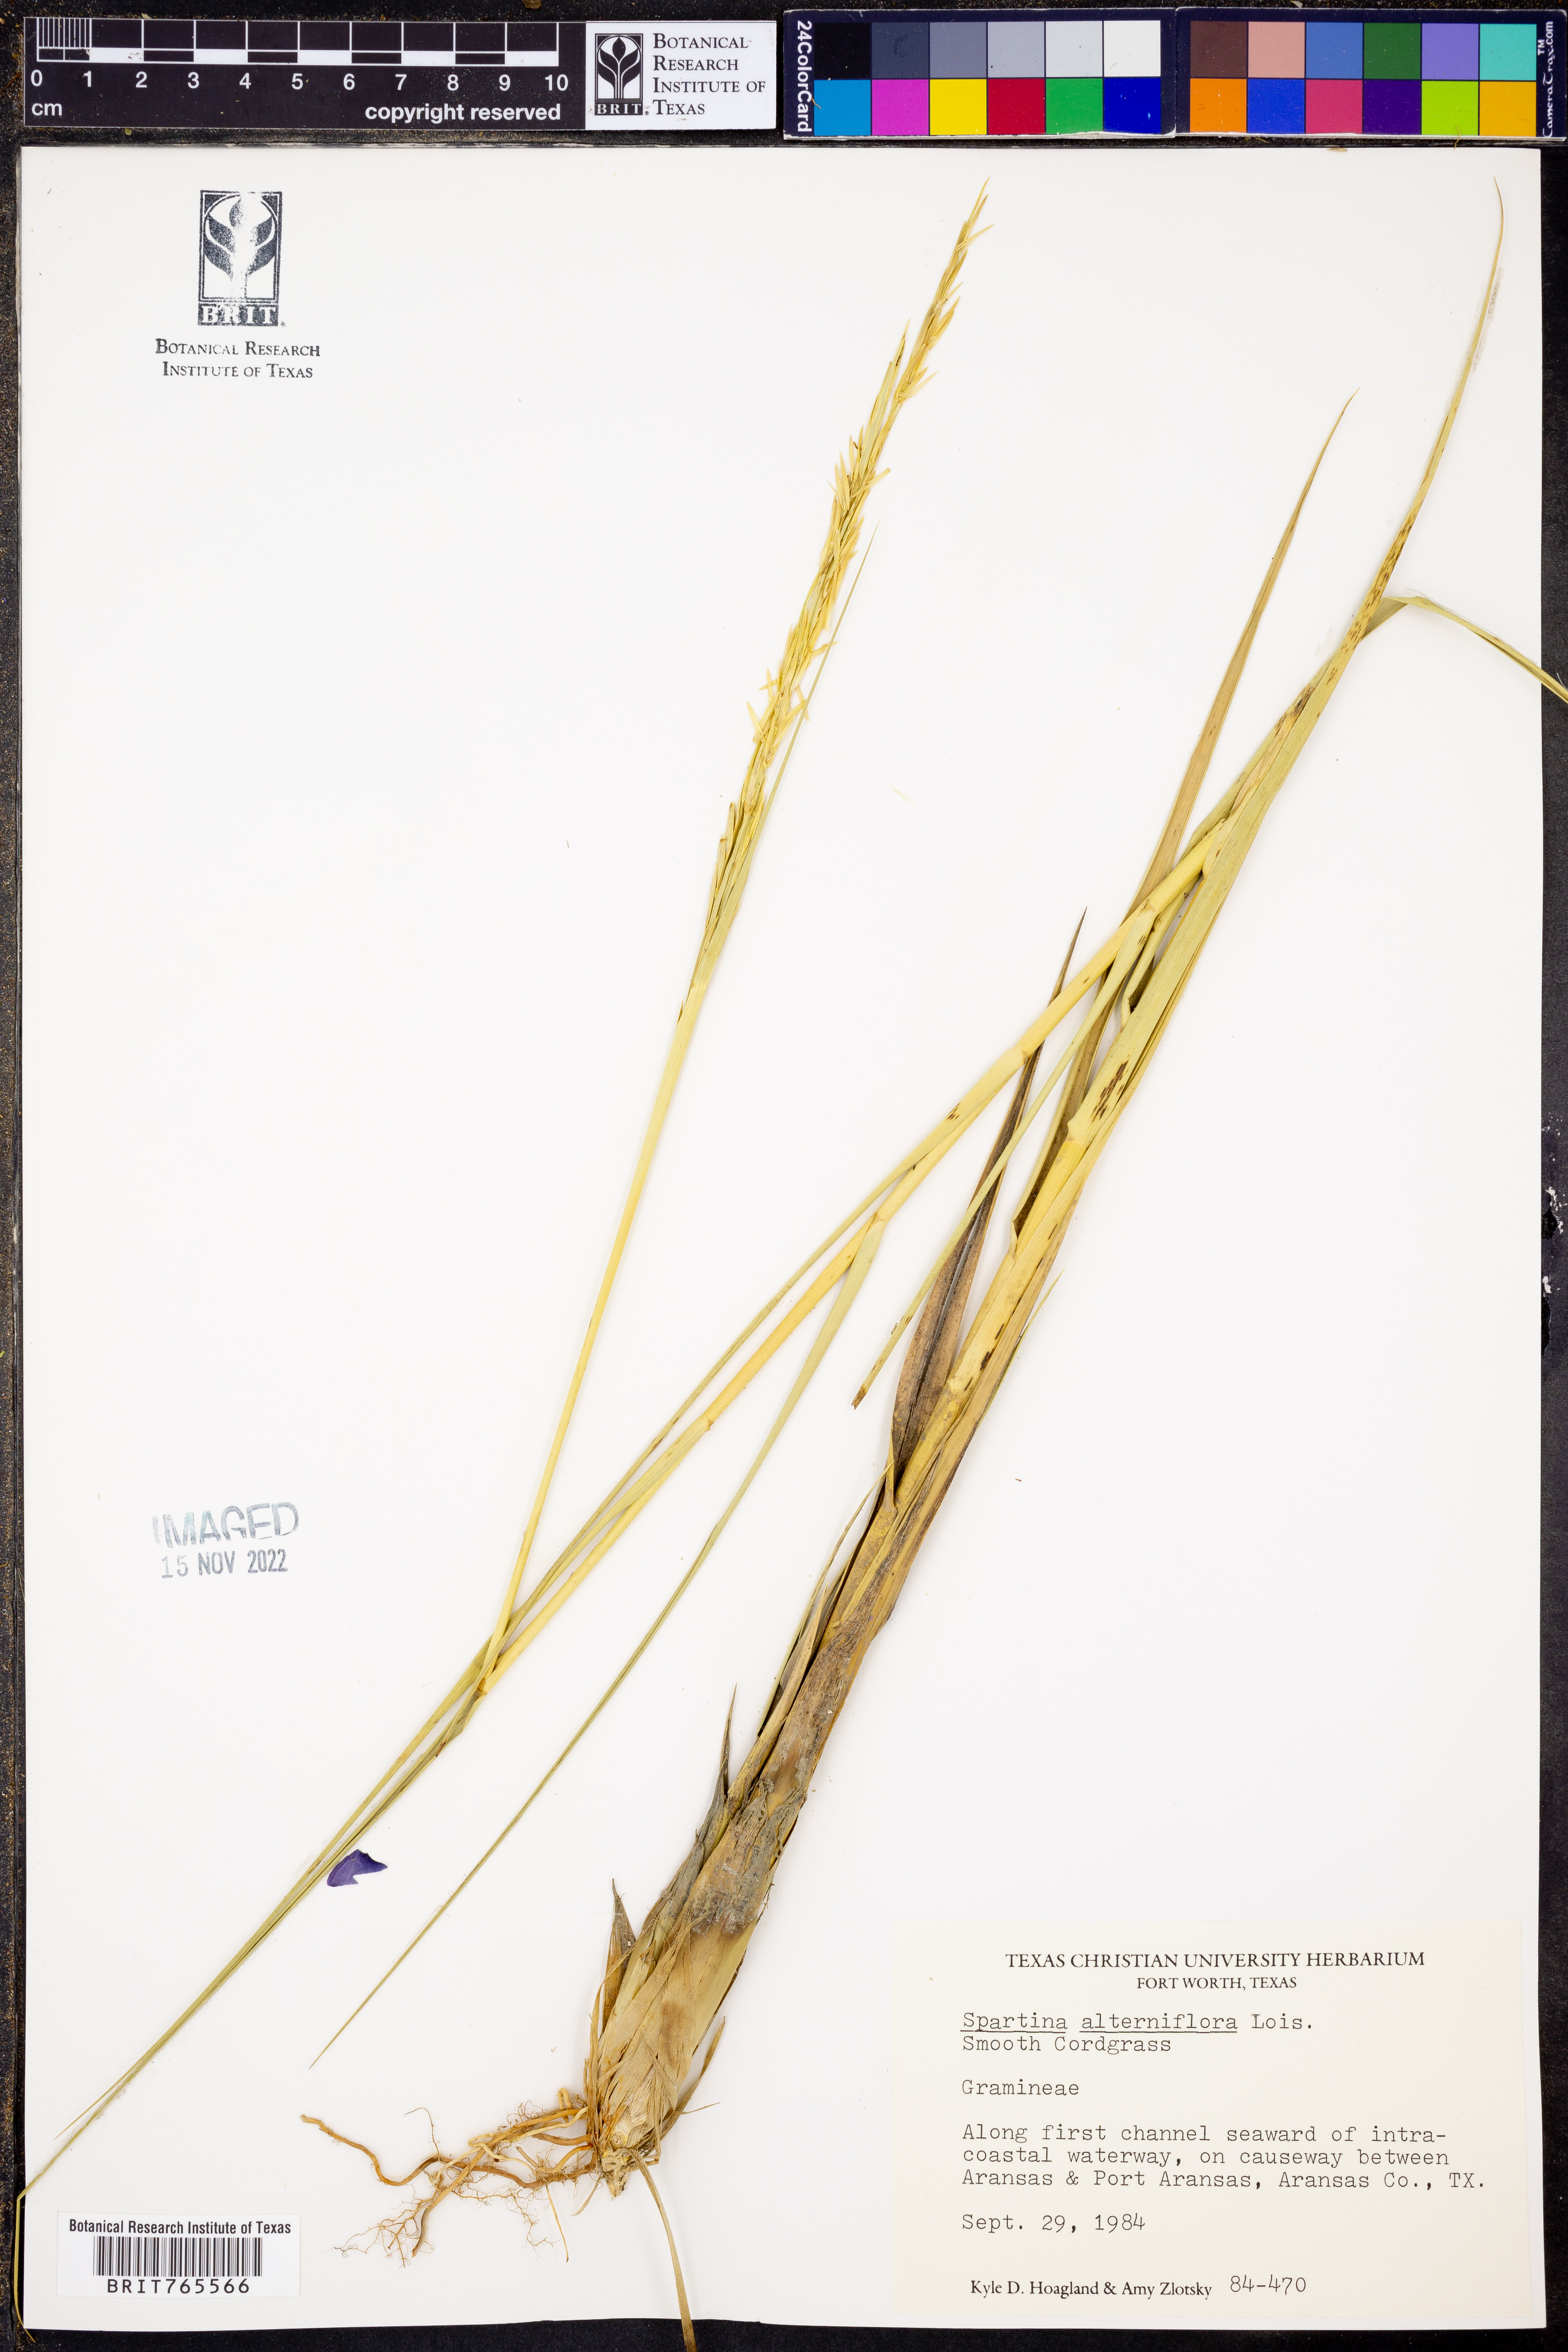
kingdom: Plantae
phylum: Tracheophyta
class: Liliopsida
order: Poales
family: Poaceae
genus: Sporobolus
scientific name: Sporobolus alterniflorus
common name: Atlantic cordgrass
